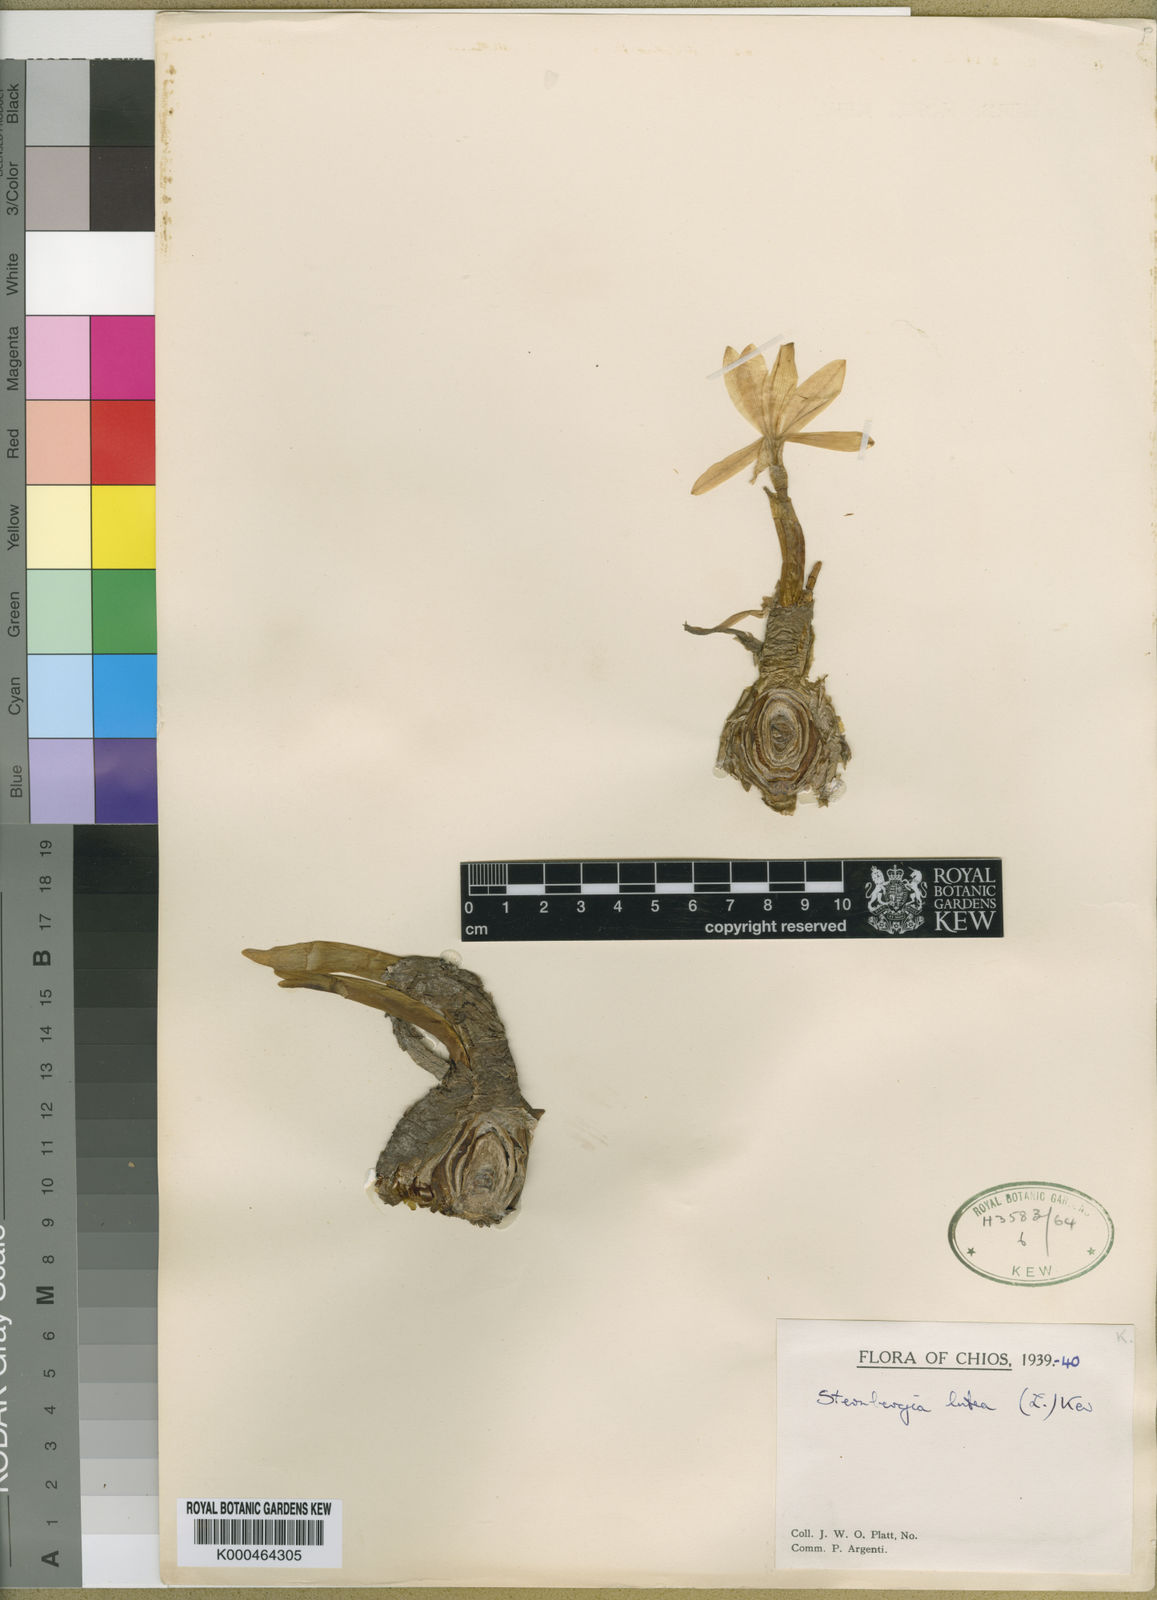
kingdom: Plantae
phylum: Tracheophyta
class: Liliopsida
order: Asparagales
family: Amaryllidaceae
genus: Sternbergia
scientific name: Sternbergia
